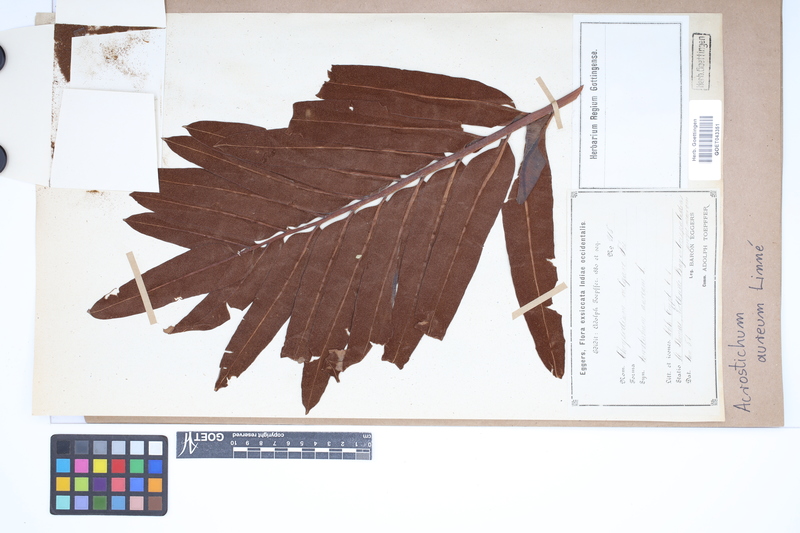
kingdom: Plantae
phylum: Tracheophyta
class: Polypodiopsida
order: Polypodiales
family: Pteridaceae
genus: Acrostichum
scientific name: Acrostichum aureum
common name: Leather fern
